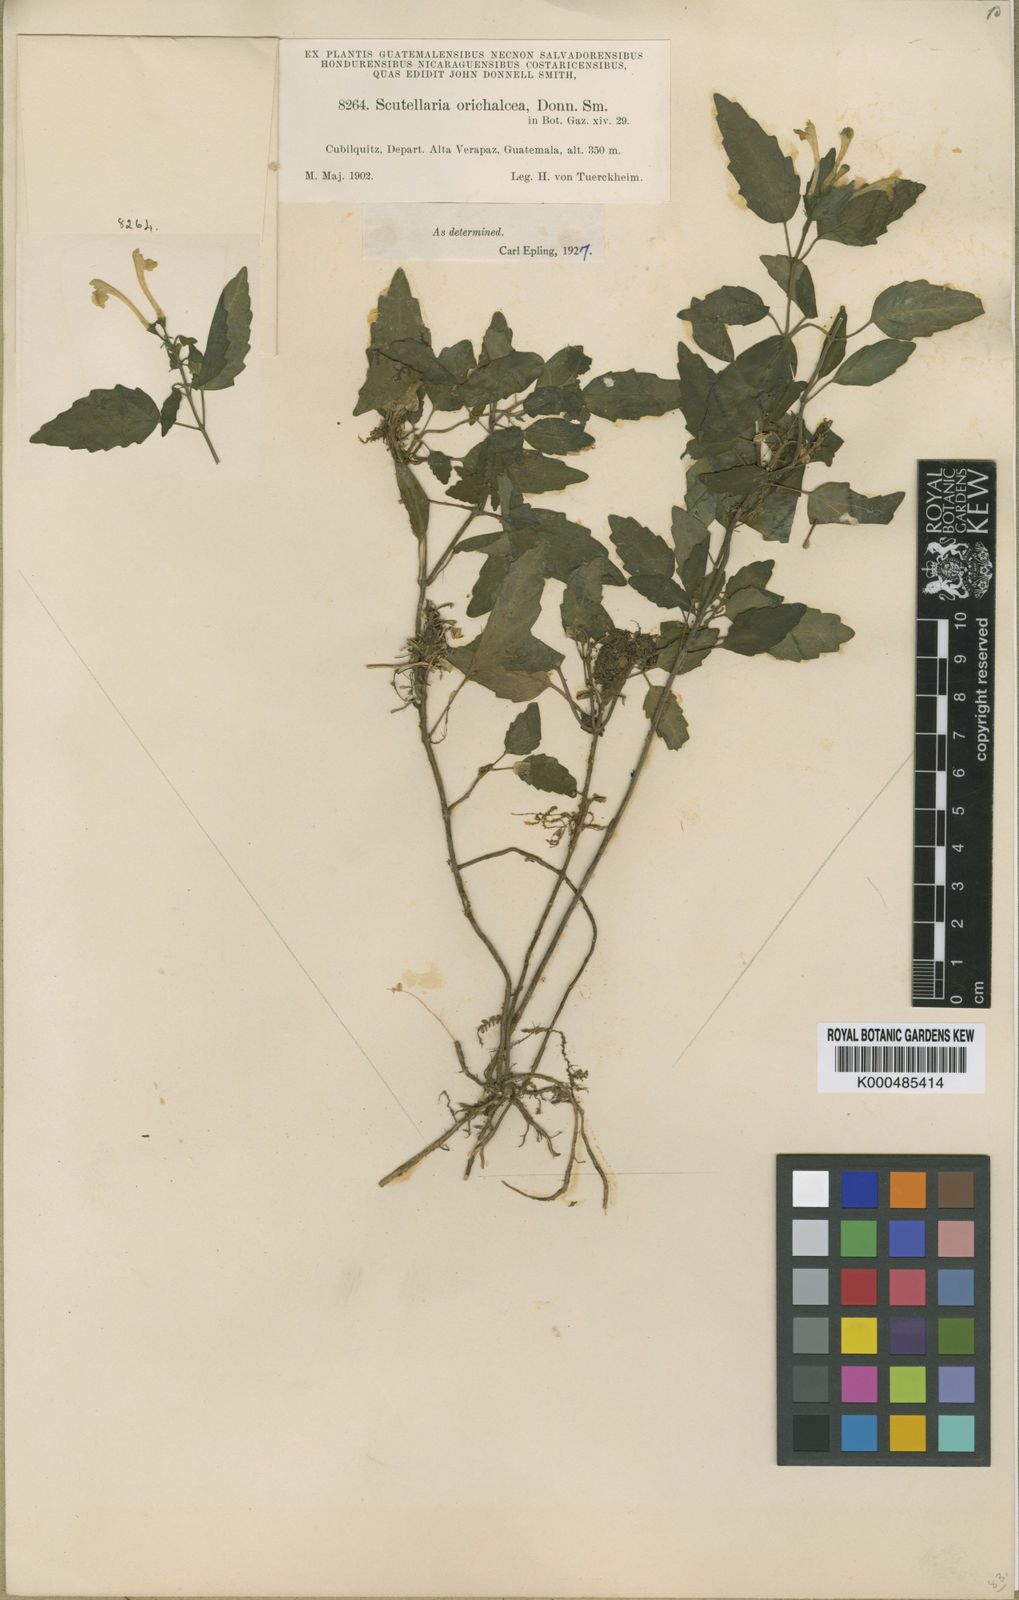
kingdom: Plantae
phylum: Tracheophyta
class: Magnoliopsida
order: Lamiales
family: Lamiaceae
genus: Scutellaria
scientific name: Scutellaria orichalcea
